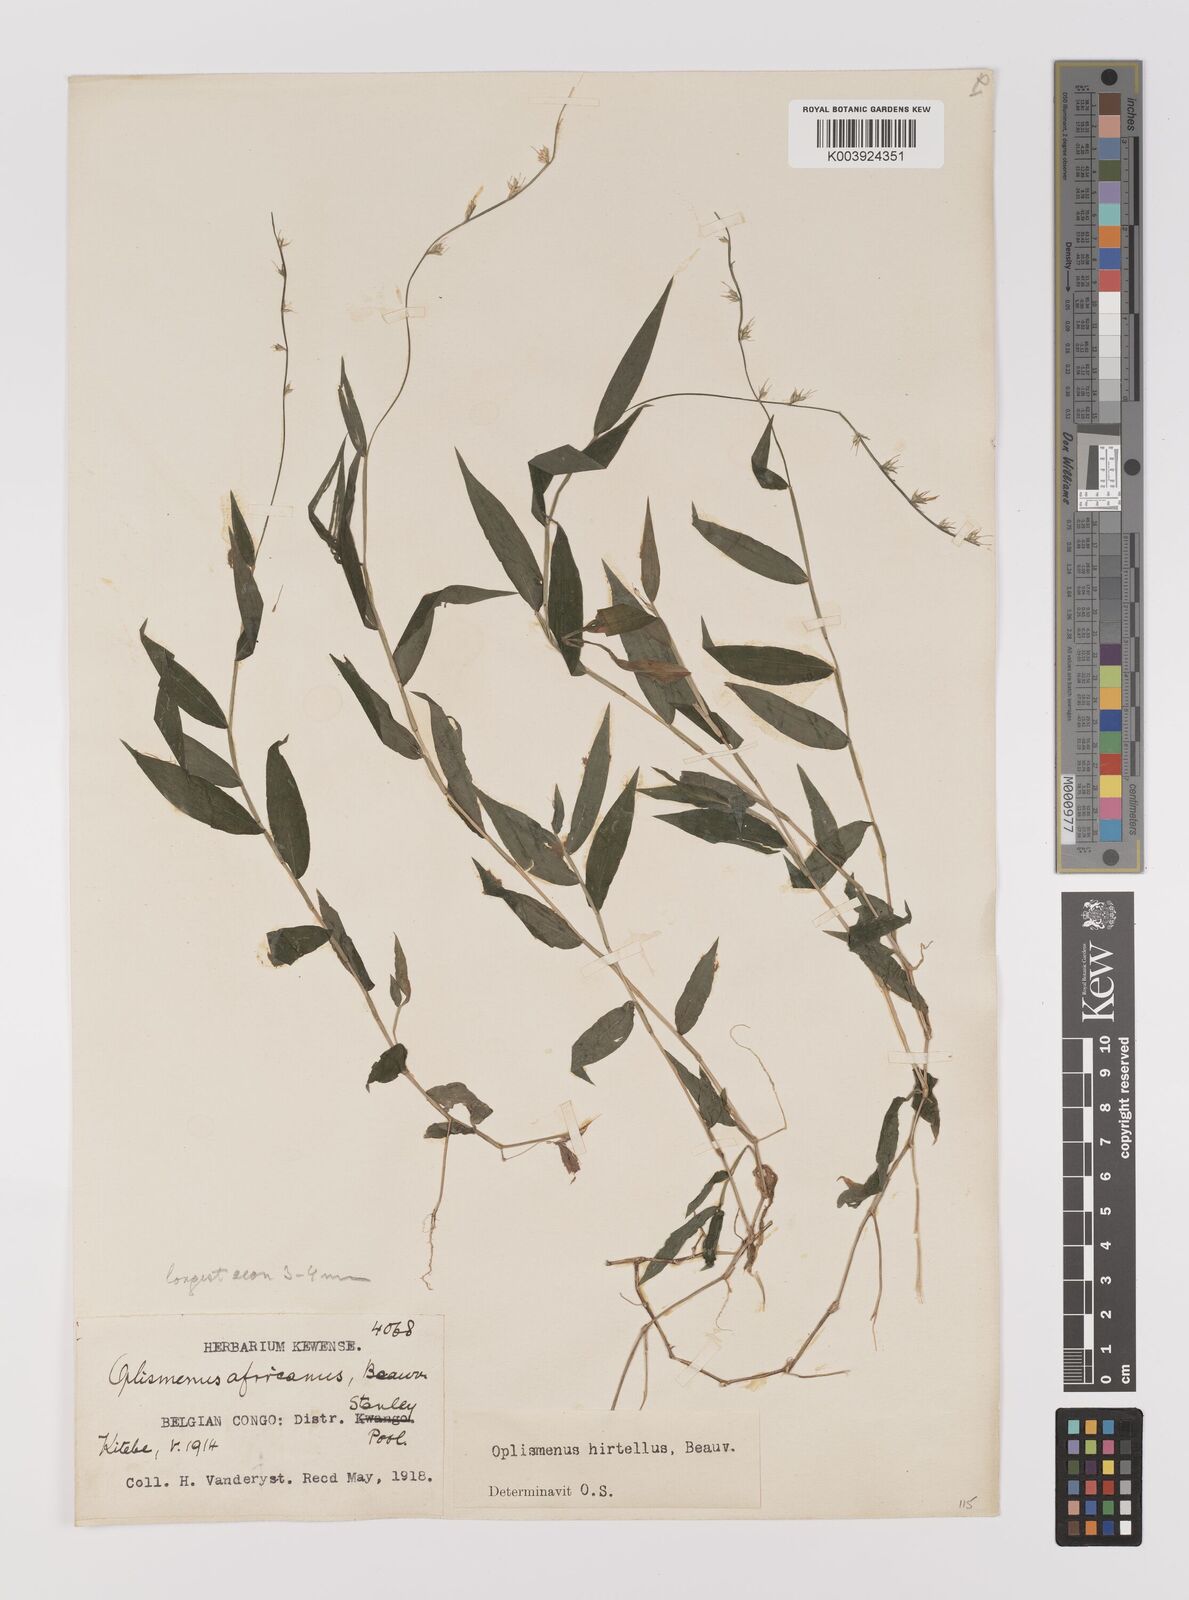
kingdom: Plantae
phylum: Tracheophyta
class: Liliopsida
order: Poales
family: Poaceae
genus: Oplismenus
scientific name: Oplismenus hirtellus
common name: Basketgrass
